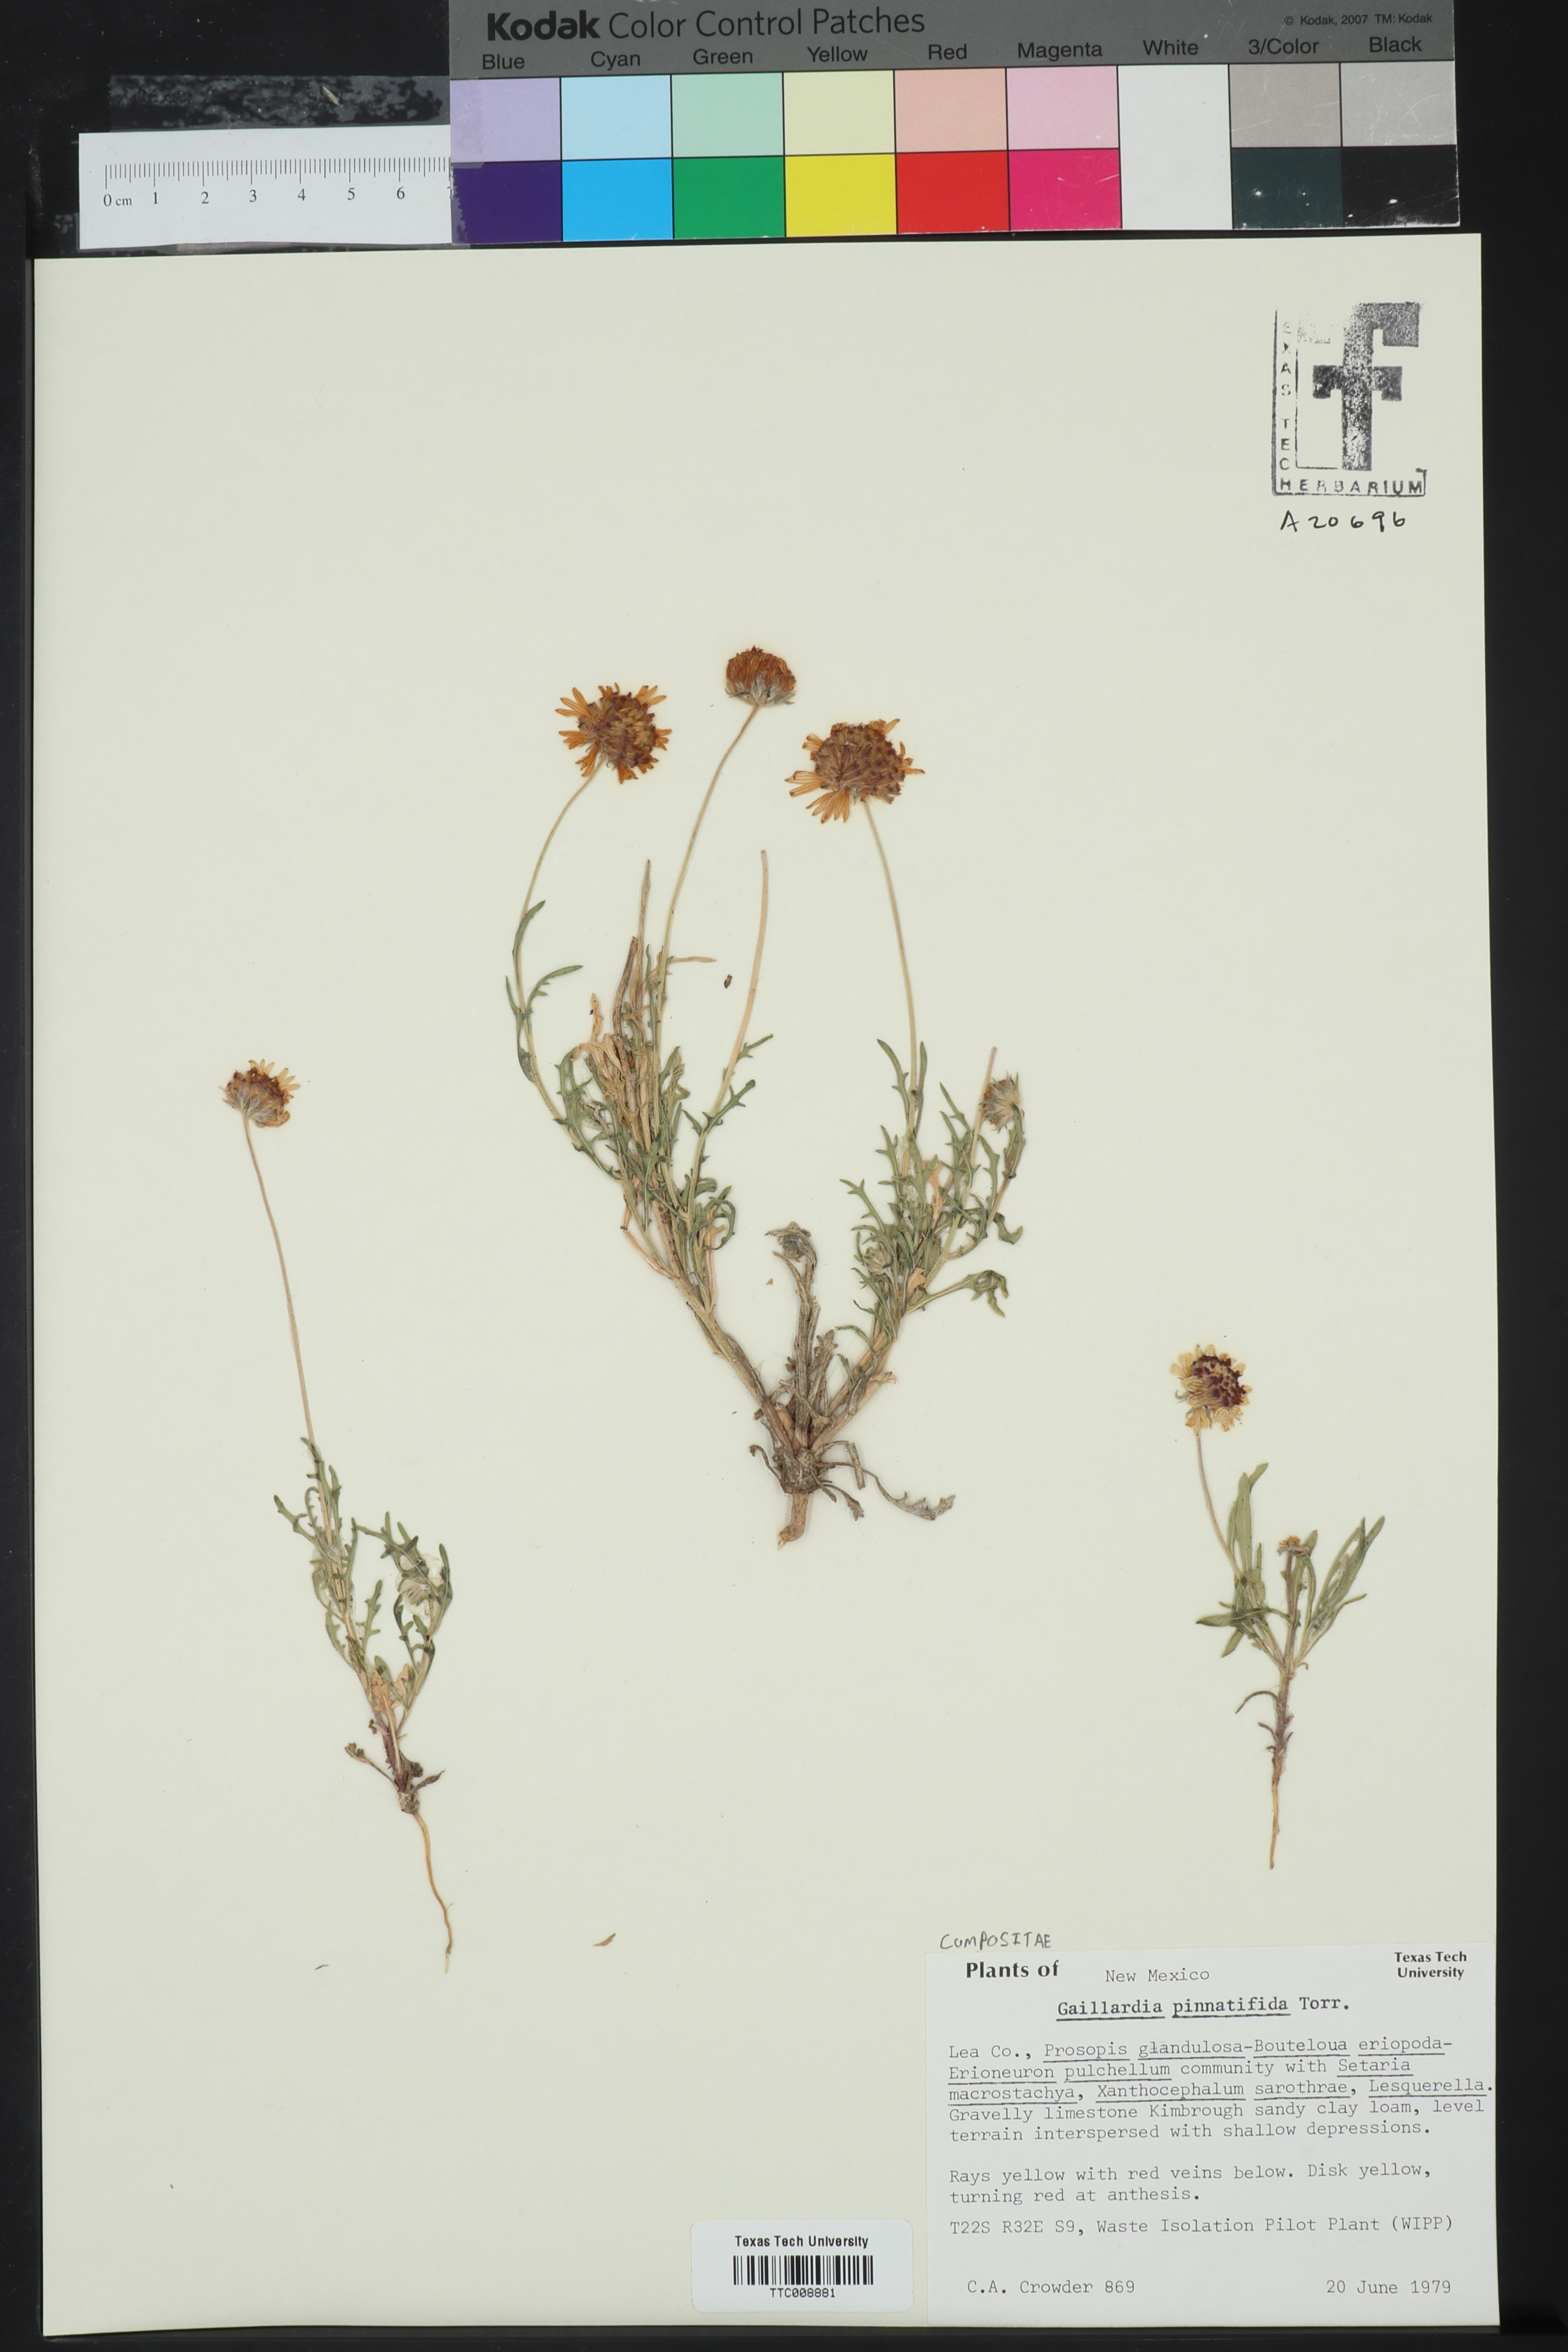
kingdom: Plantae
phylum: Tracheophyta
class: Magnoliopsida
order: Asterales
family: Asteraceae
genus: Gaillardia
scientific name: Gaillardia pinnatifida
